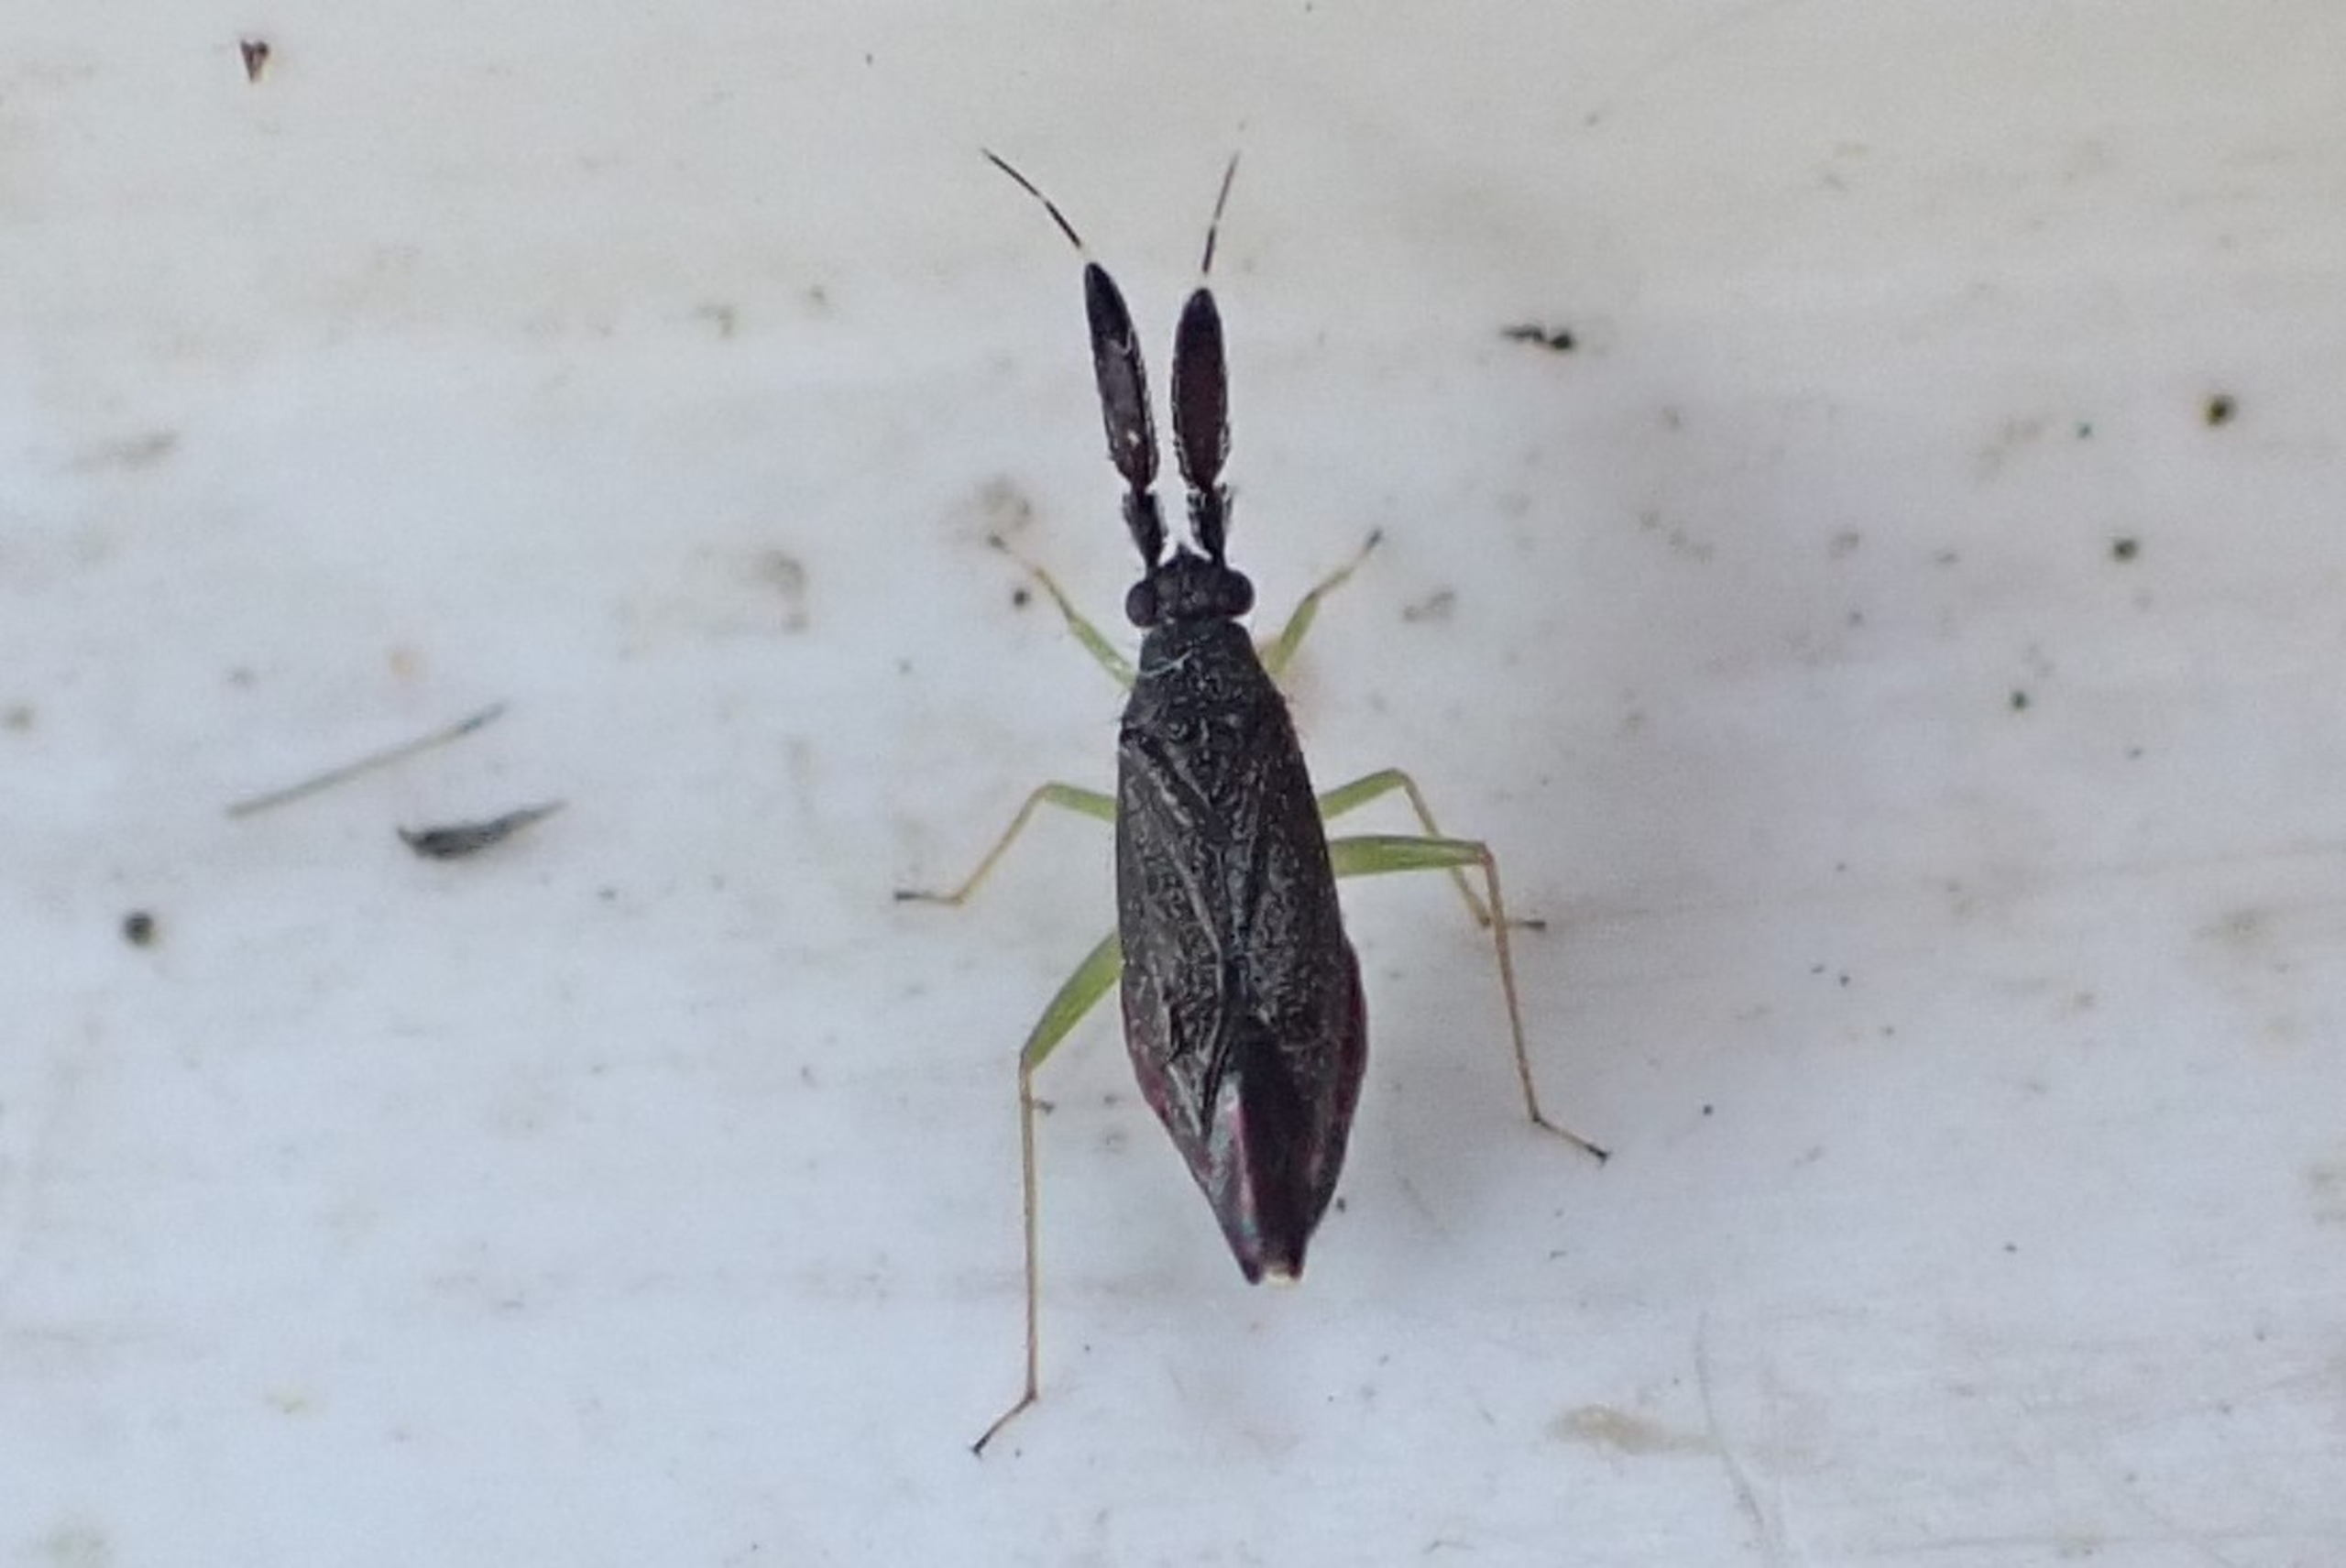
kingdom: Animalia
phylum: Arthropoda
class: Insecta
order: Hemiptera
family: Miridae
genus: Heterotoma
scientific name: Heterotoma planicornis
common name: Køllehornet blomstertæge
